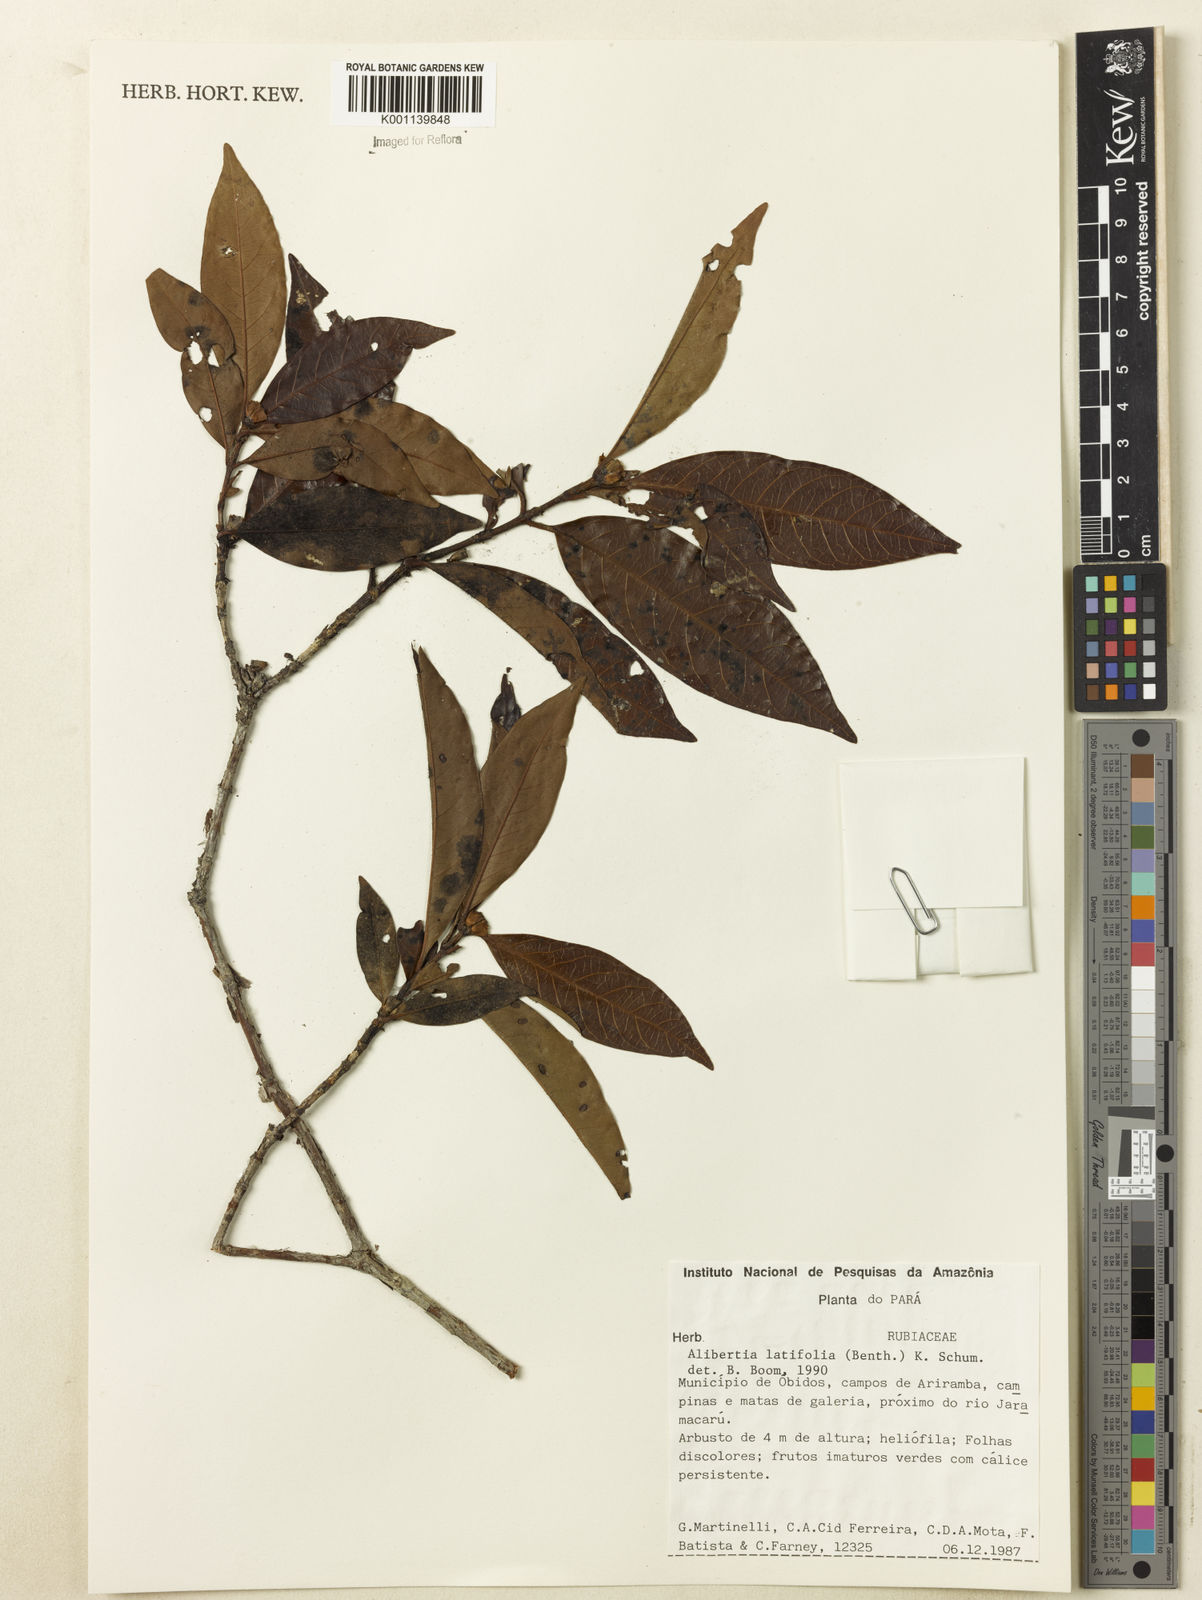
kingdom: Plantae
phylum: Tracheophyta
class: Magnoliopsida
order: Gentianales
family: Rubiaceae
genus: Alibertia
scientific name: Alibertia latifolia
